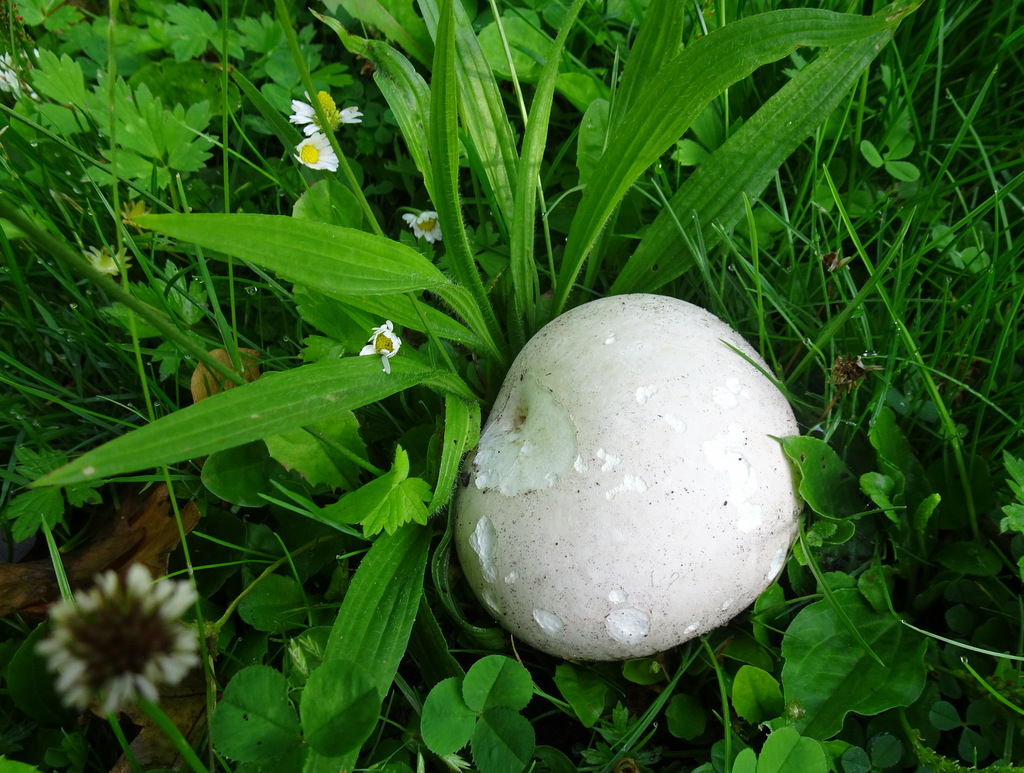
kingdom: Fungi
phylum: Basidiomycota
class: Agaricomycetes
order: Agaricales
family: Lycoperdaceae
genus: Calvatia
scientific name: Calvatia gigantea
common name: kæmpestøvbold
